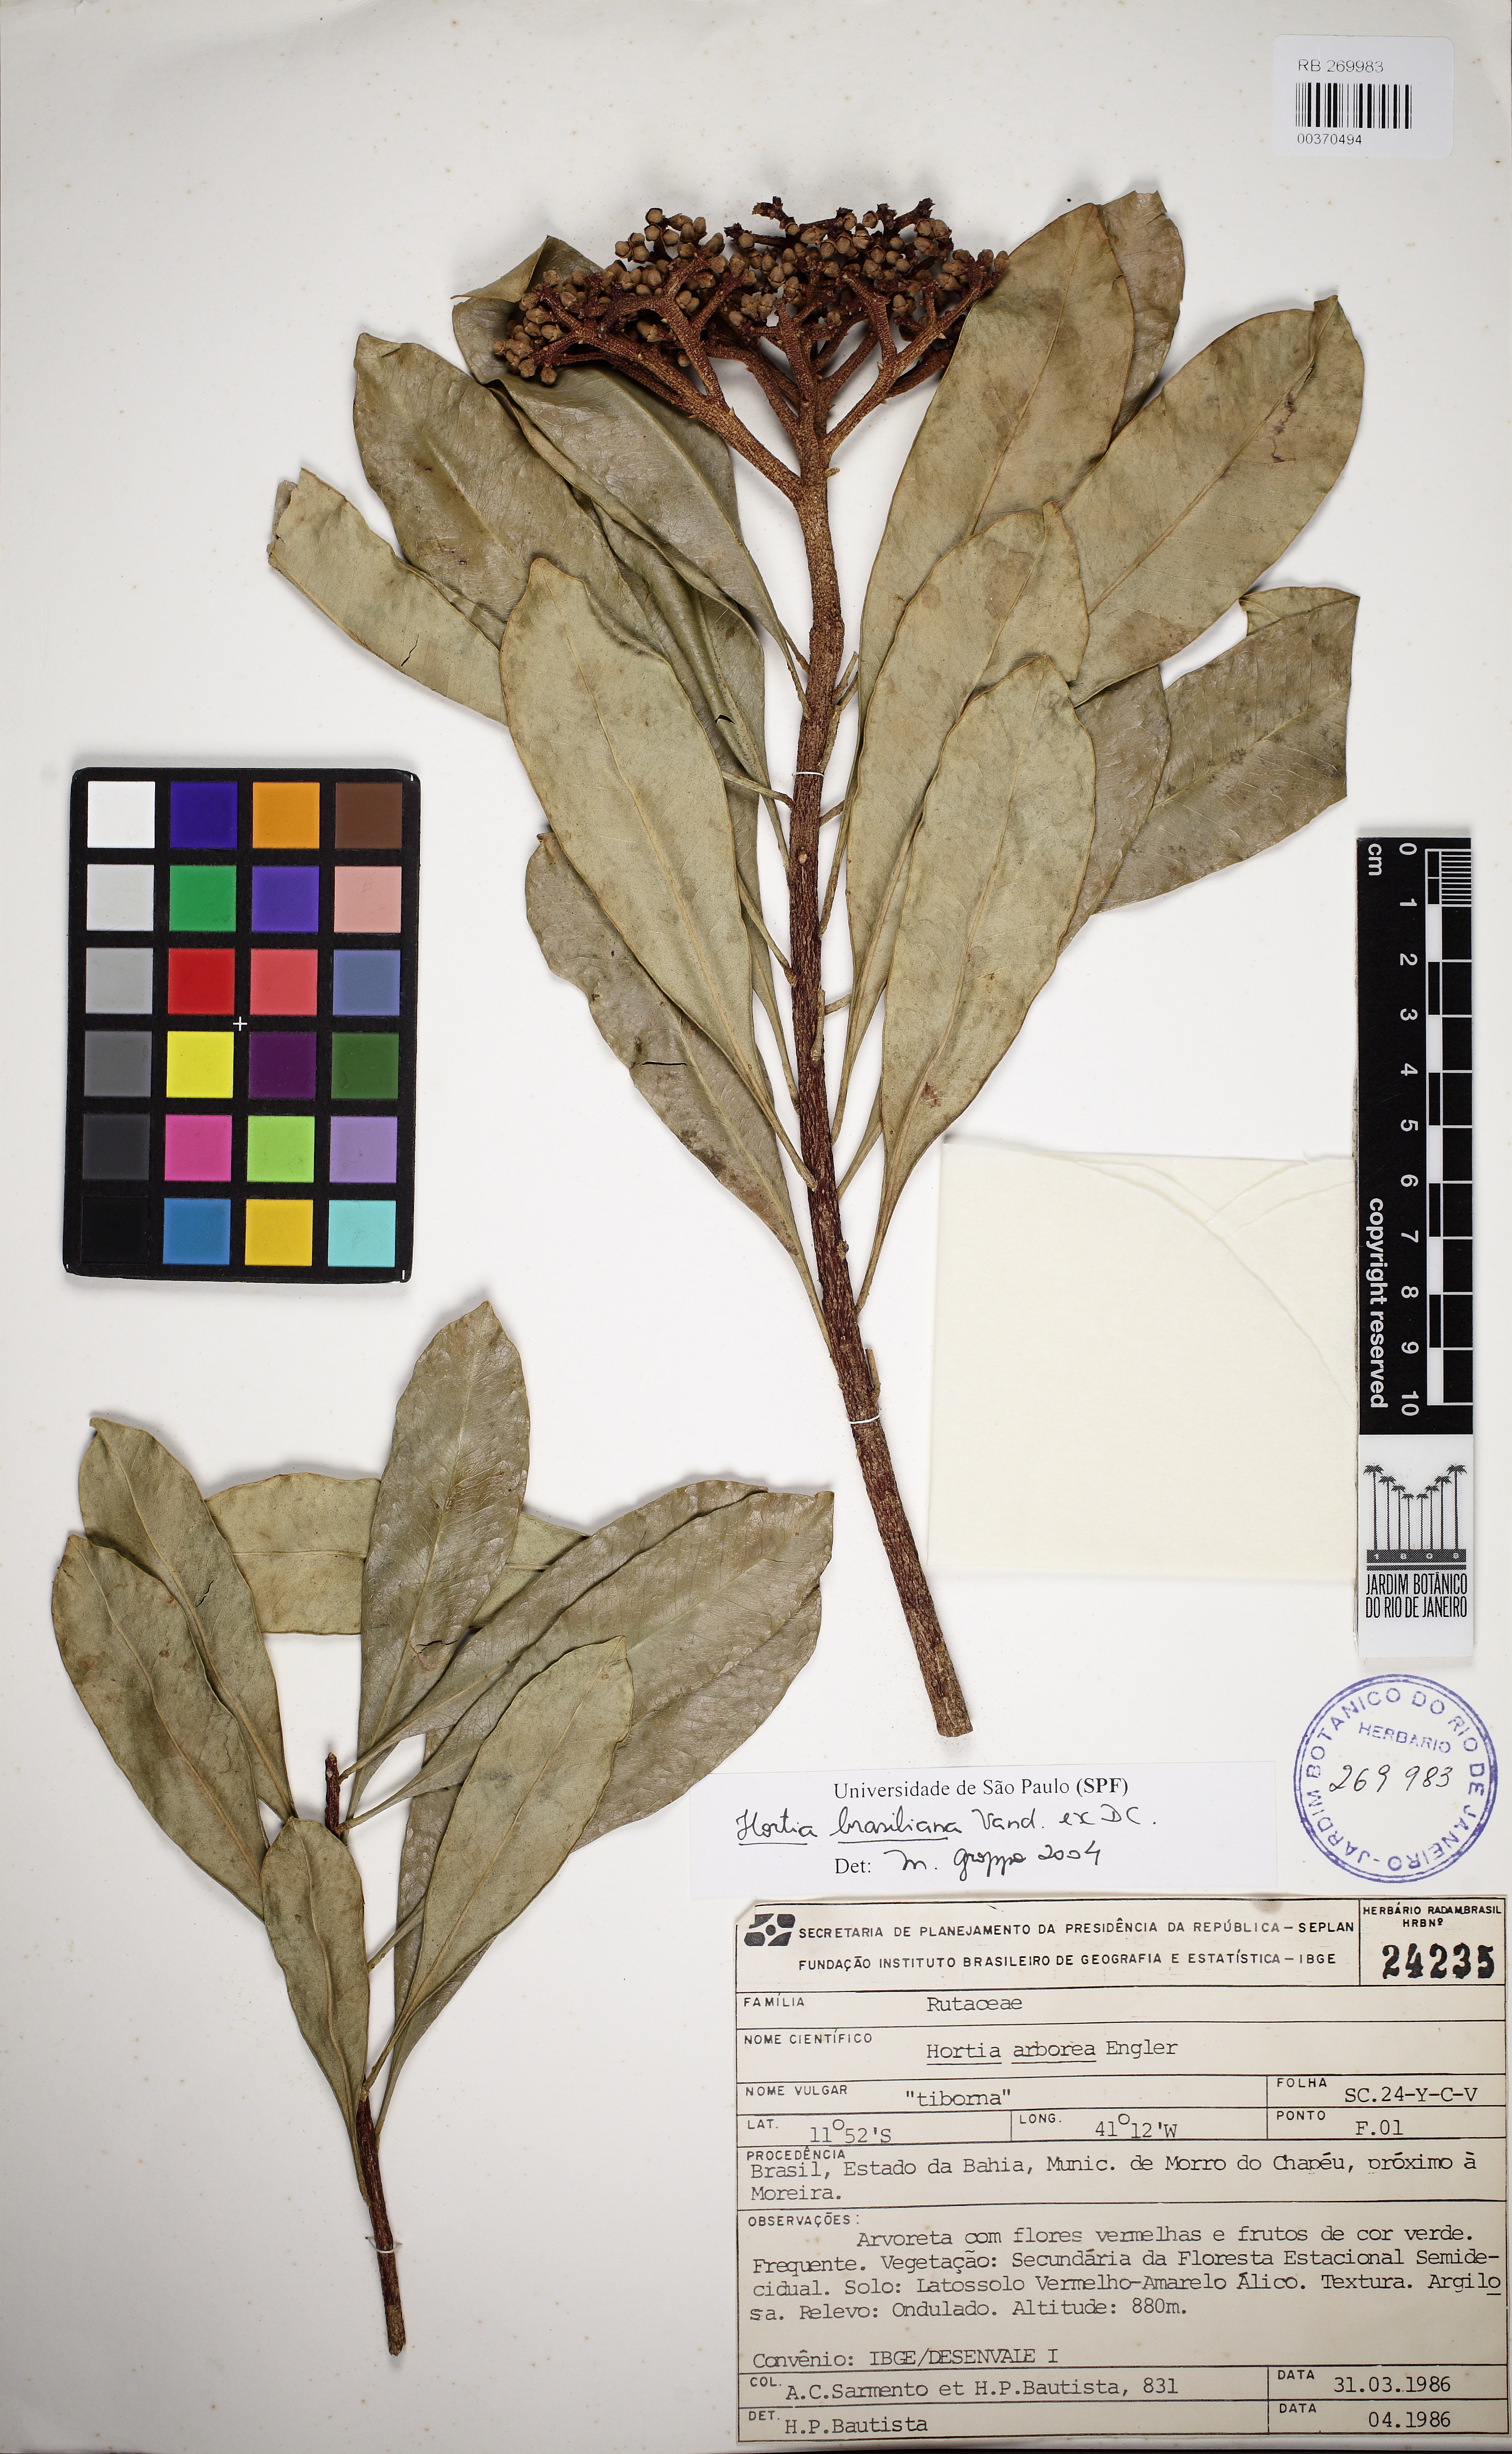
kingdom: Plantae
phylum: Tracheophyta
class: Magnoliopsida
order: Sapindales
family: Rutaceae
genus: Hortia
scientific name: Hortia brasiliana
